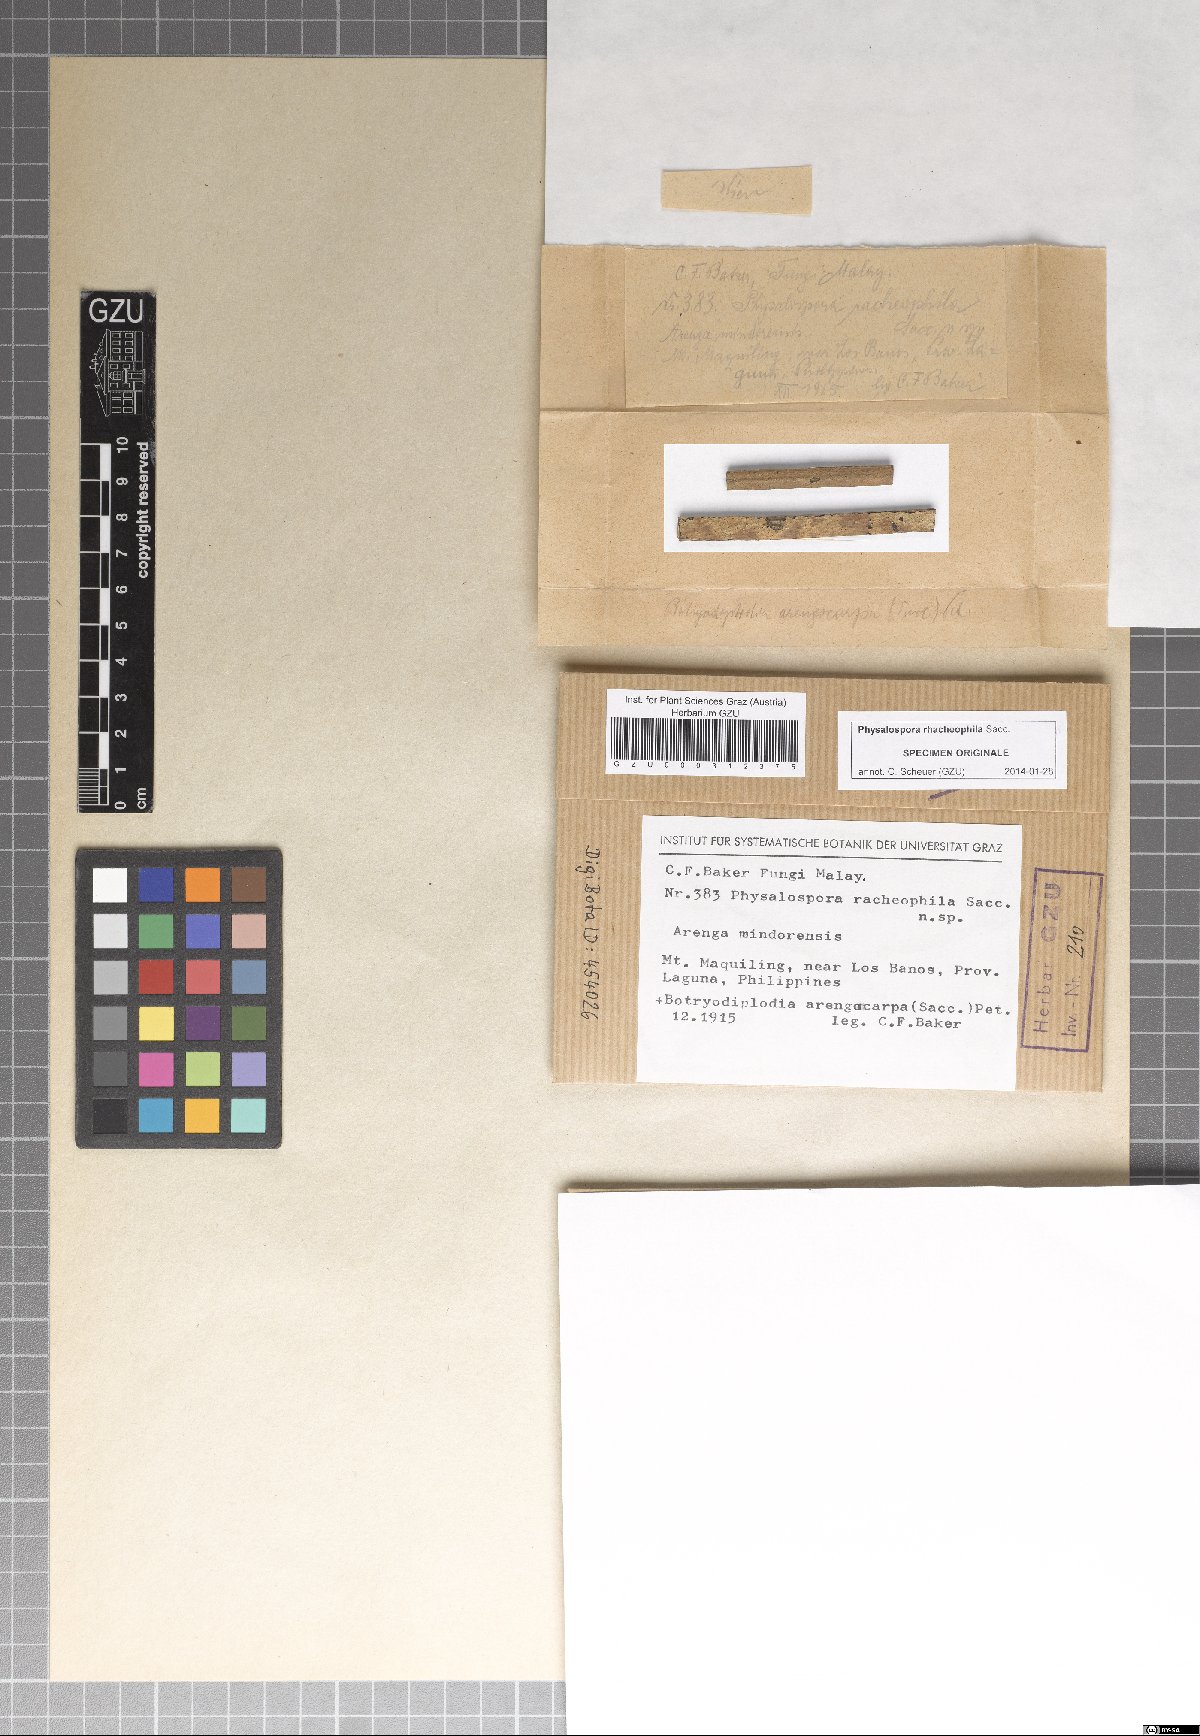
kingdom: Fungi
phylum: Ascomycota
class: Dothideomycetes
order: Botryosphaeriales
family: Botryosphaeriaceae
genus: Melanops
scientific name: Melanops rhacheophila
